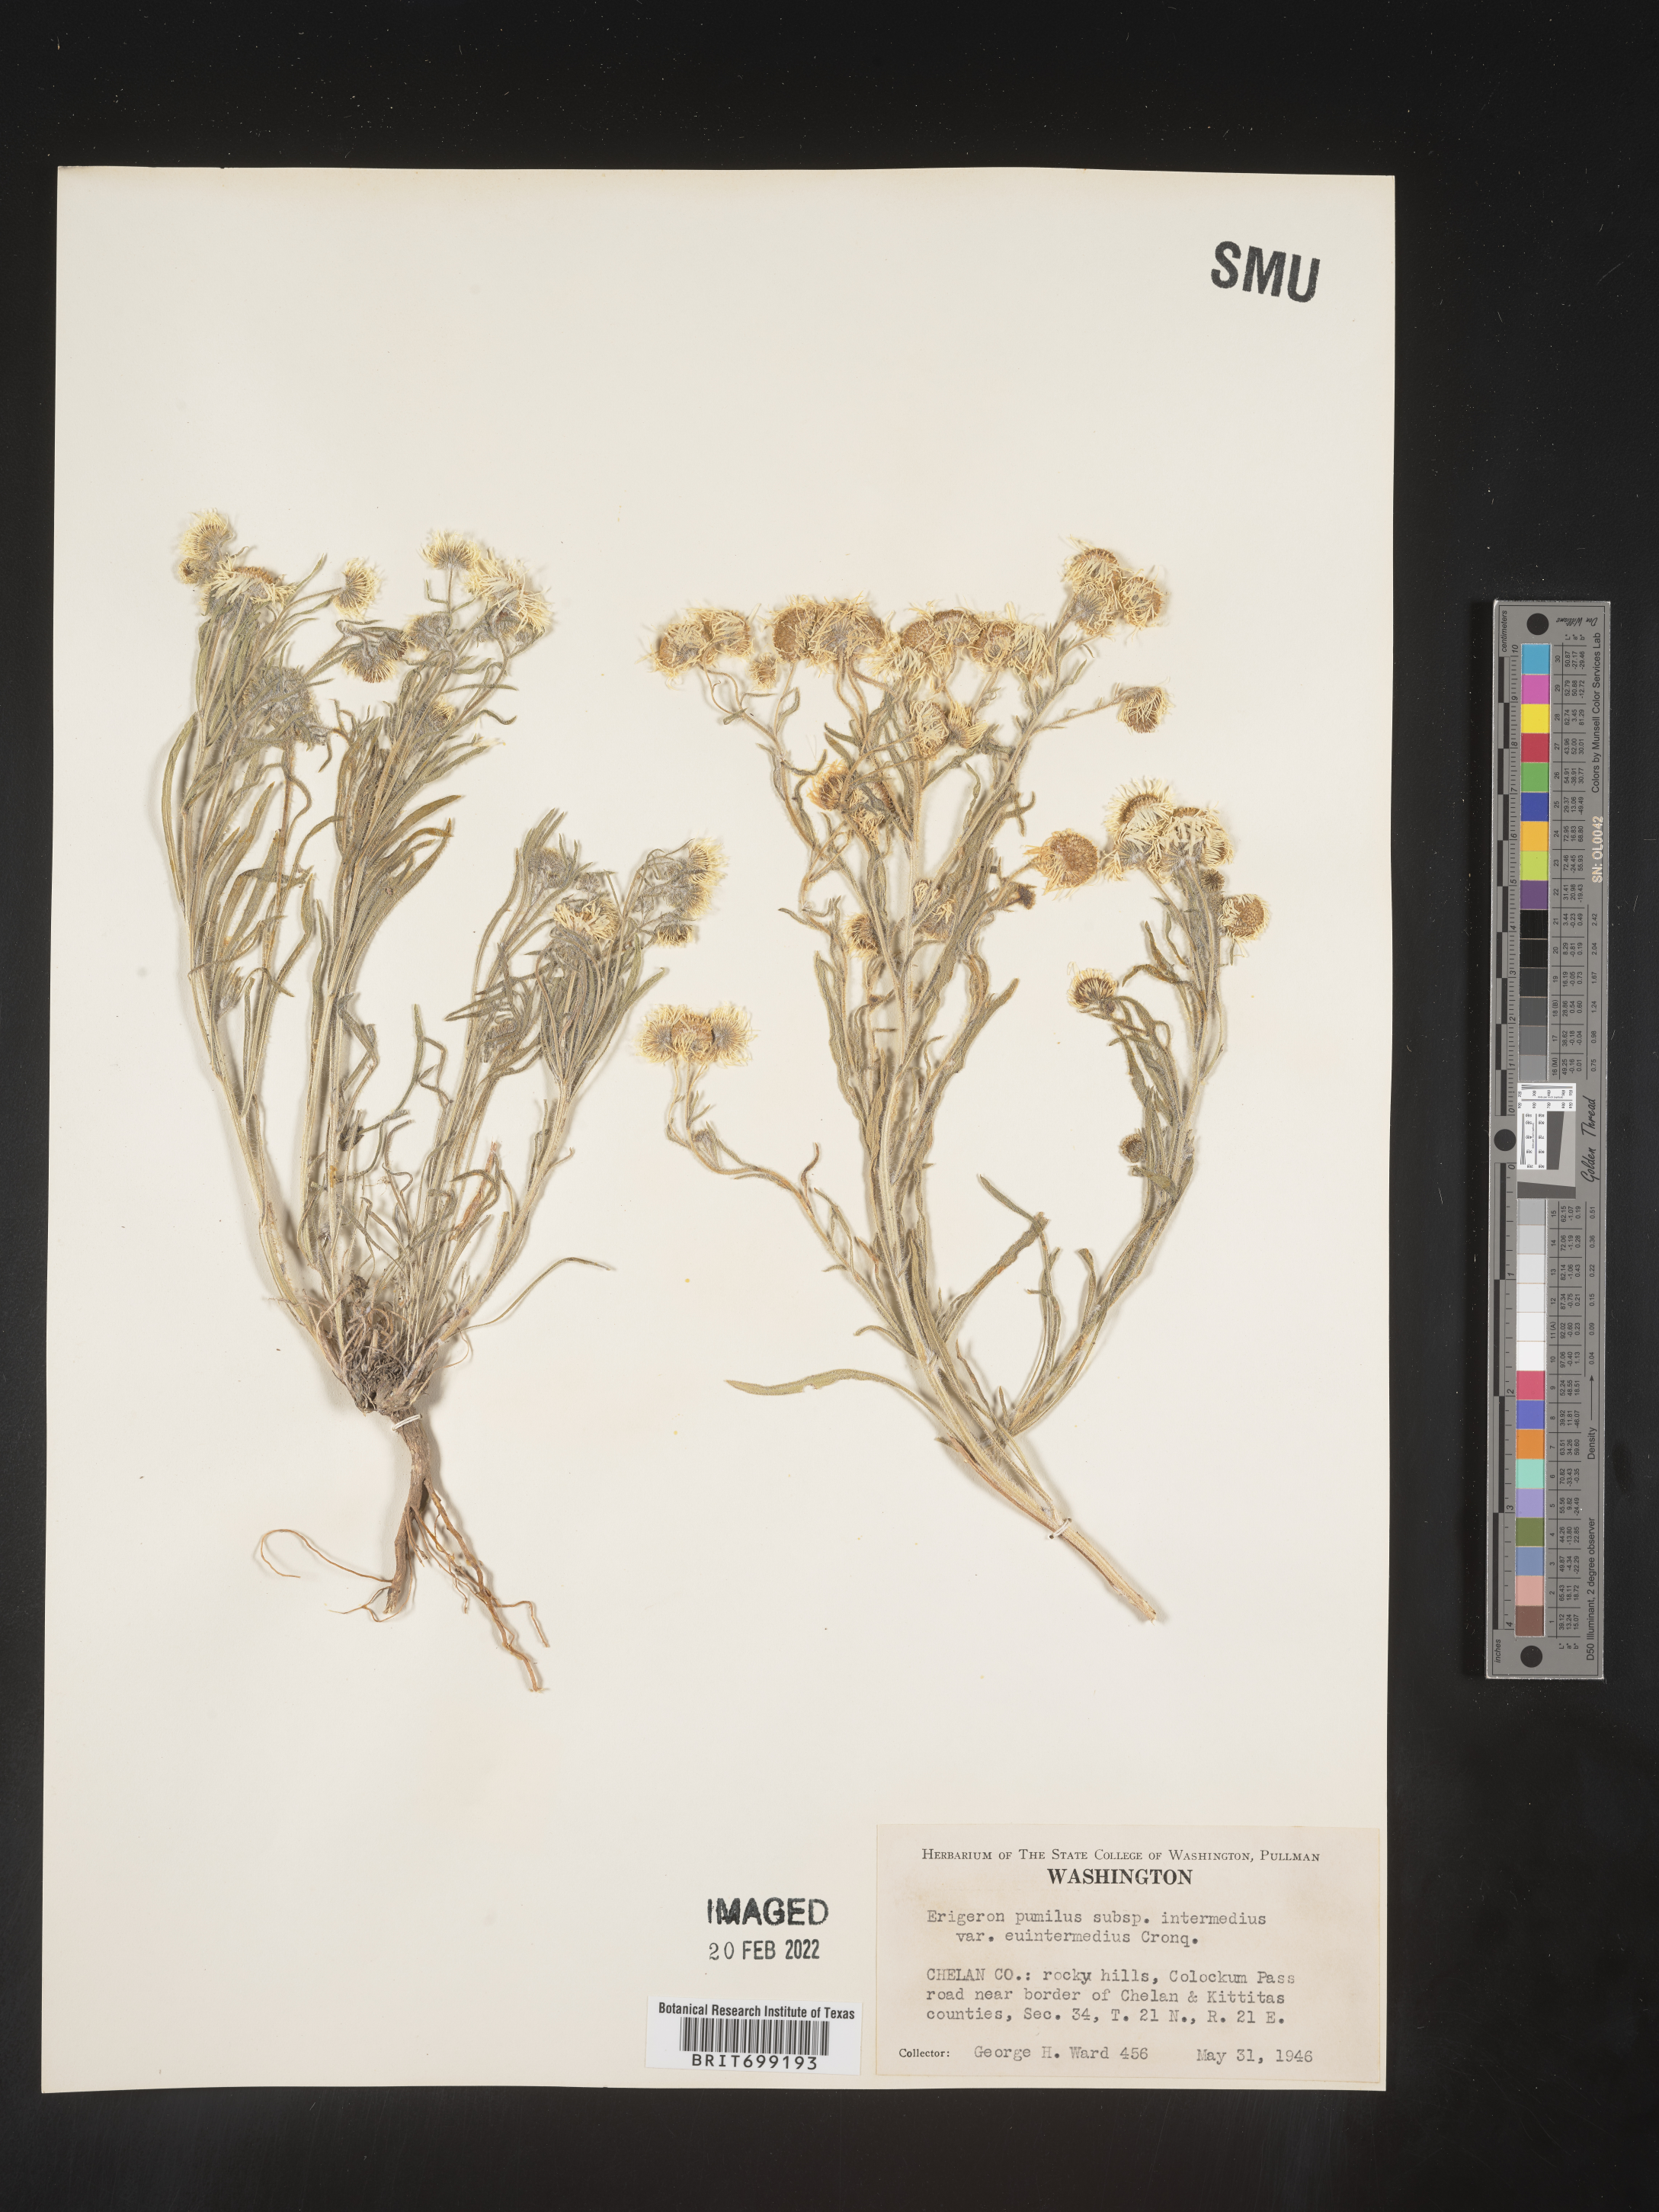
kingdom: Plantae
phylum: Tracheophyta
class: Magnoliopsida
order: Asterales
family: Asteraceae
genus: Erigeron
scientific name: Erigeron pumilus
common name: Shaggy fleabane
